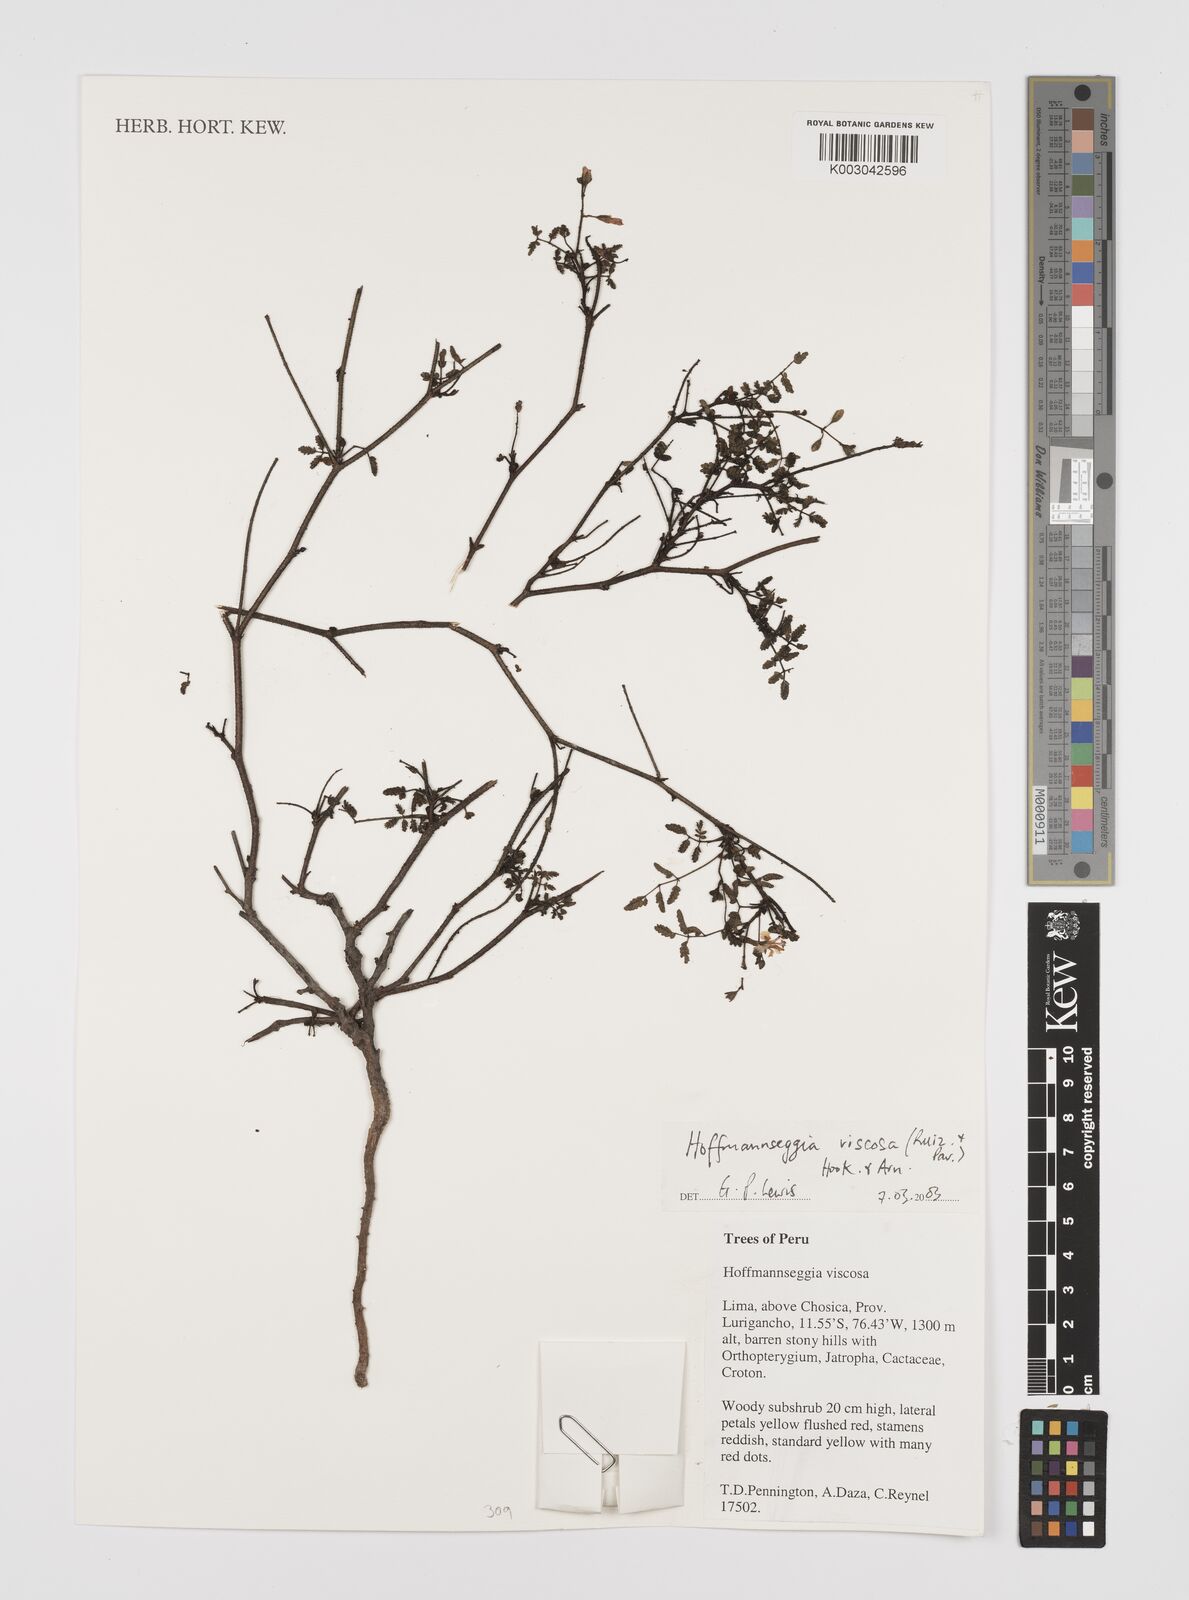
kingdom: Plantae
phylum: Tracheophyta
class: Magnoliopsida
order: Fabales
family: Fabaceae
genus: Hoffmannseggia
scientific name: Hoffmannseggia viscosa
